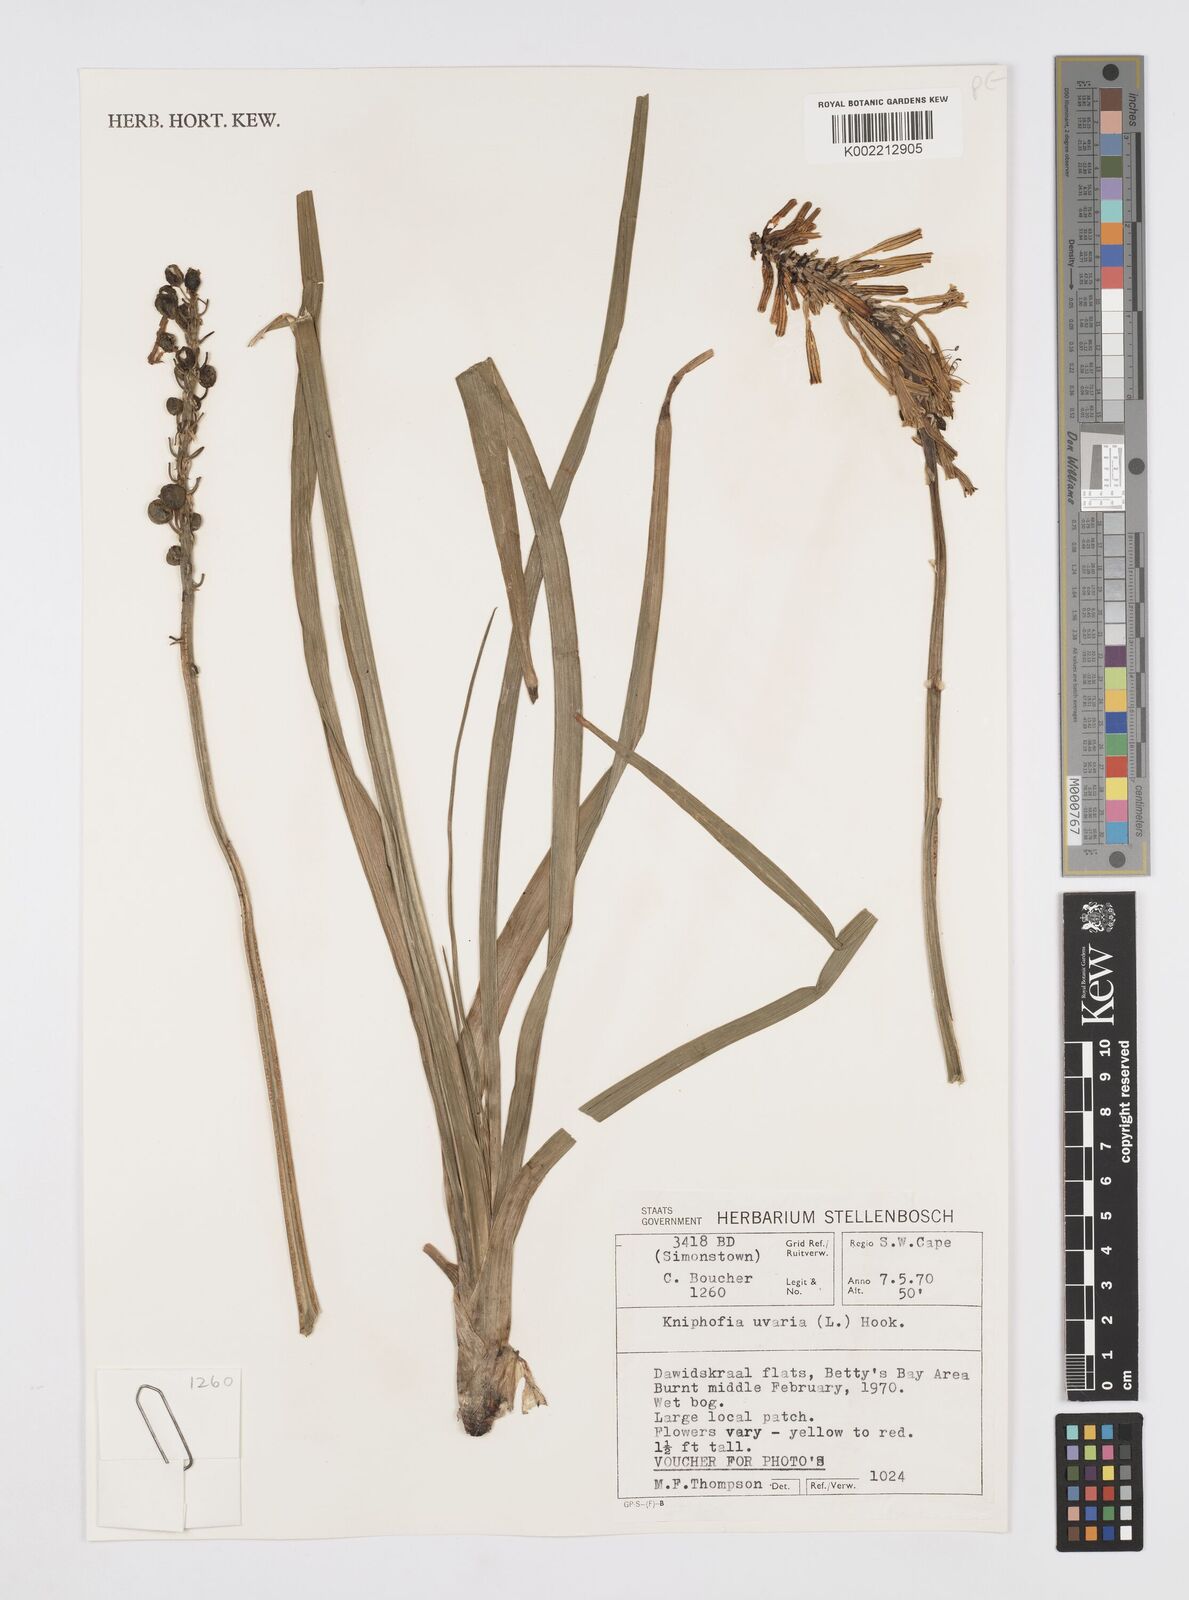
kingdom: Plantae
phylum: Tracheophyta
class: Liliopsida
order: Asparagales
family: Asphodelaceae
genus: Kniphofia
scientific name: Kniphofia uvaria
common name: Red-hot-poker
